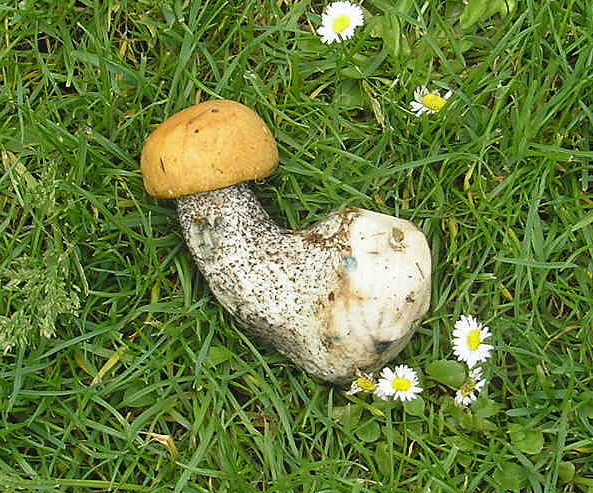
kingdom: Fungi
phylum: Basidiomycota
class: Agaricomycetes
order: Boletales
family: Boletaceae
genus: Leccinum
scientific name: Leccinum versipelle
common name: orange skælrørhat
